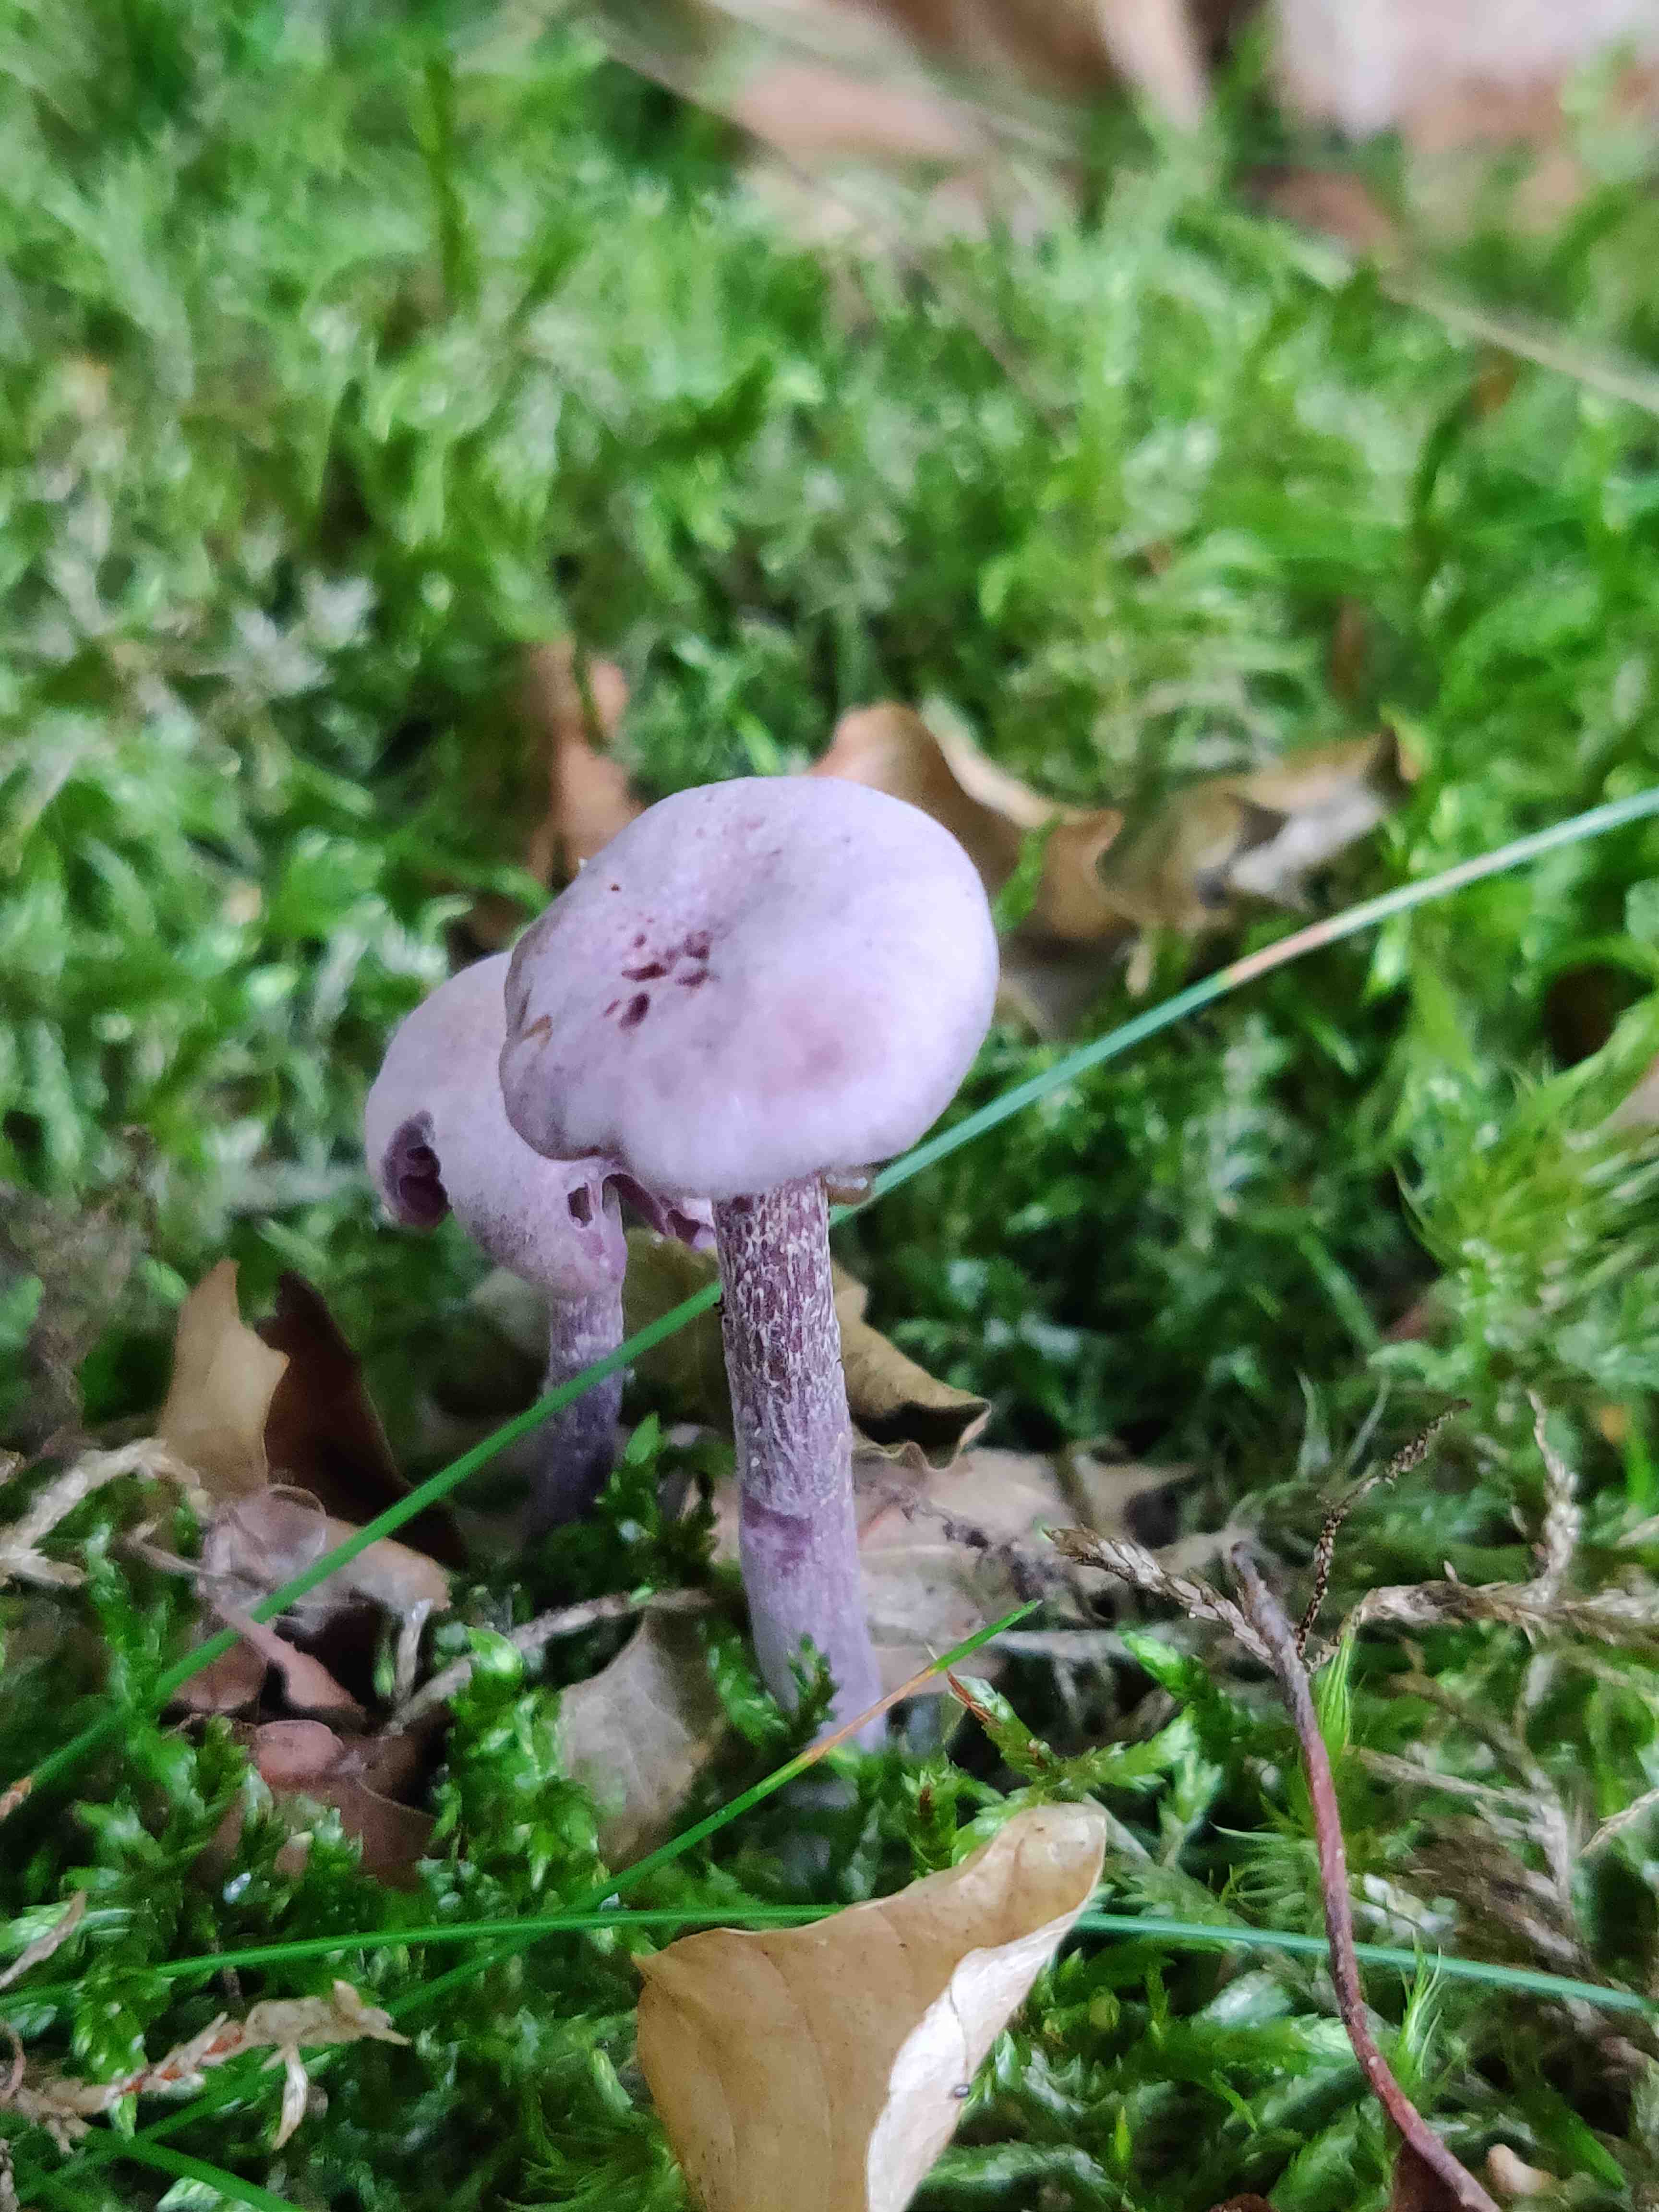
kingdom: Fungi
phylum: Basidiomycota
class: Agaricomycetes
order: Agaricales
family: Hydnangiaceae
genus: Laccaria
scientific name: Laccaria amethystina
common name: violet ametysthat
